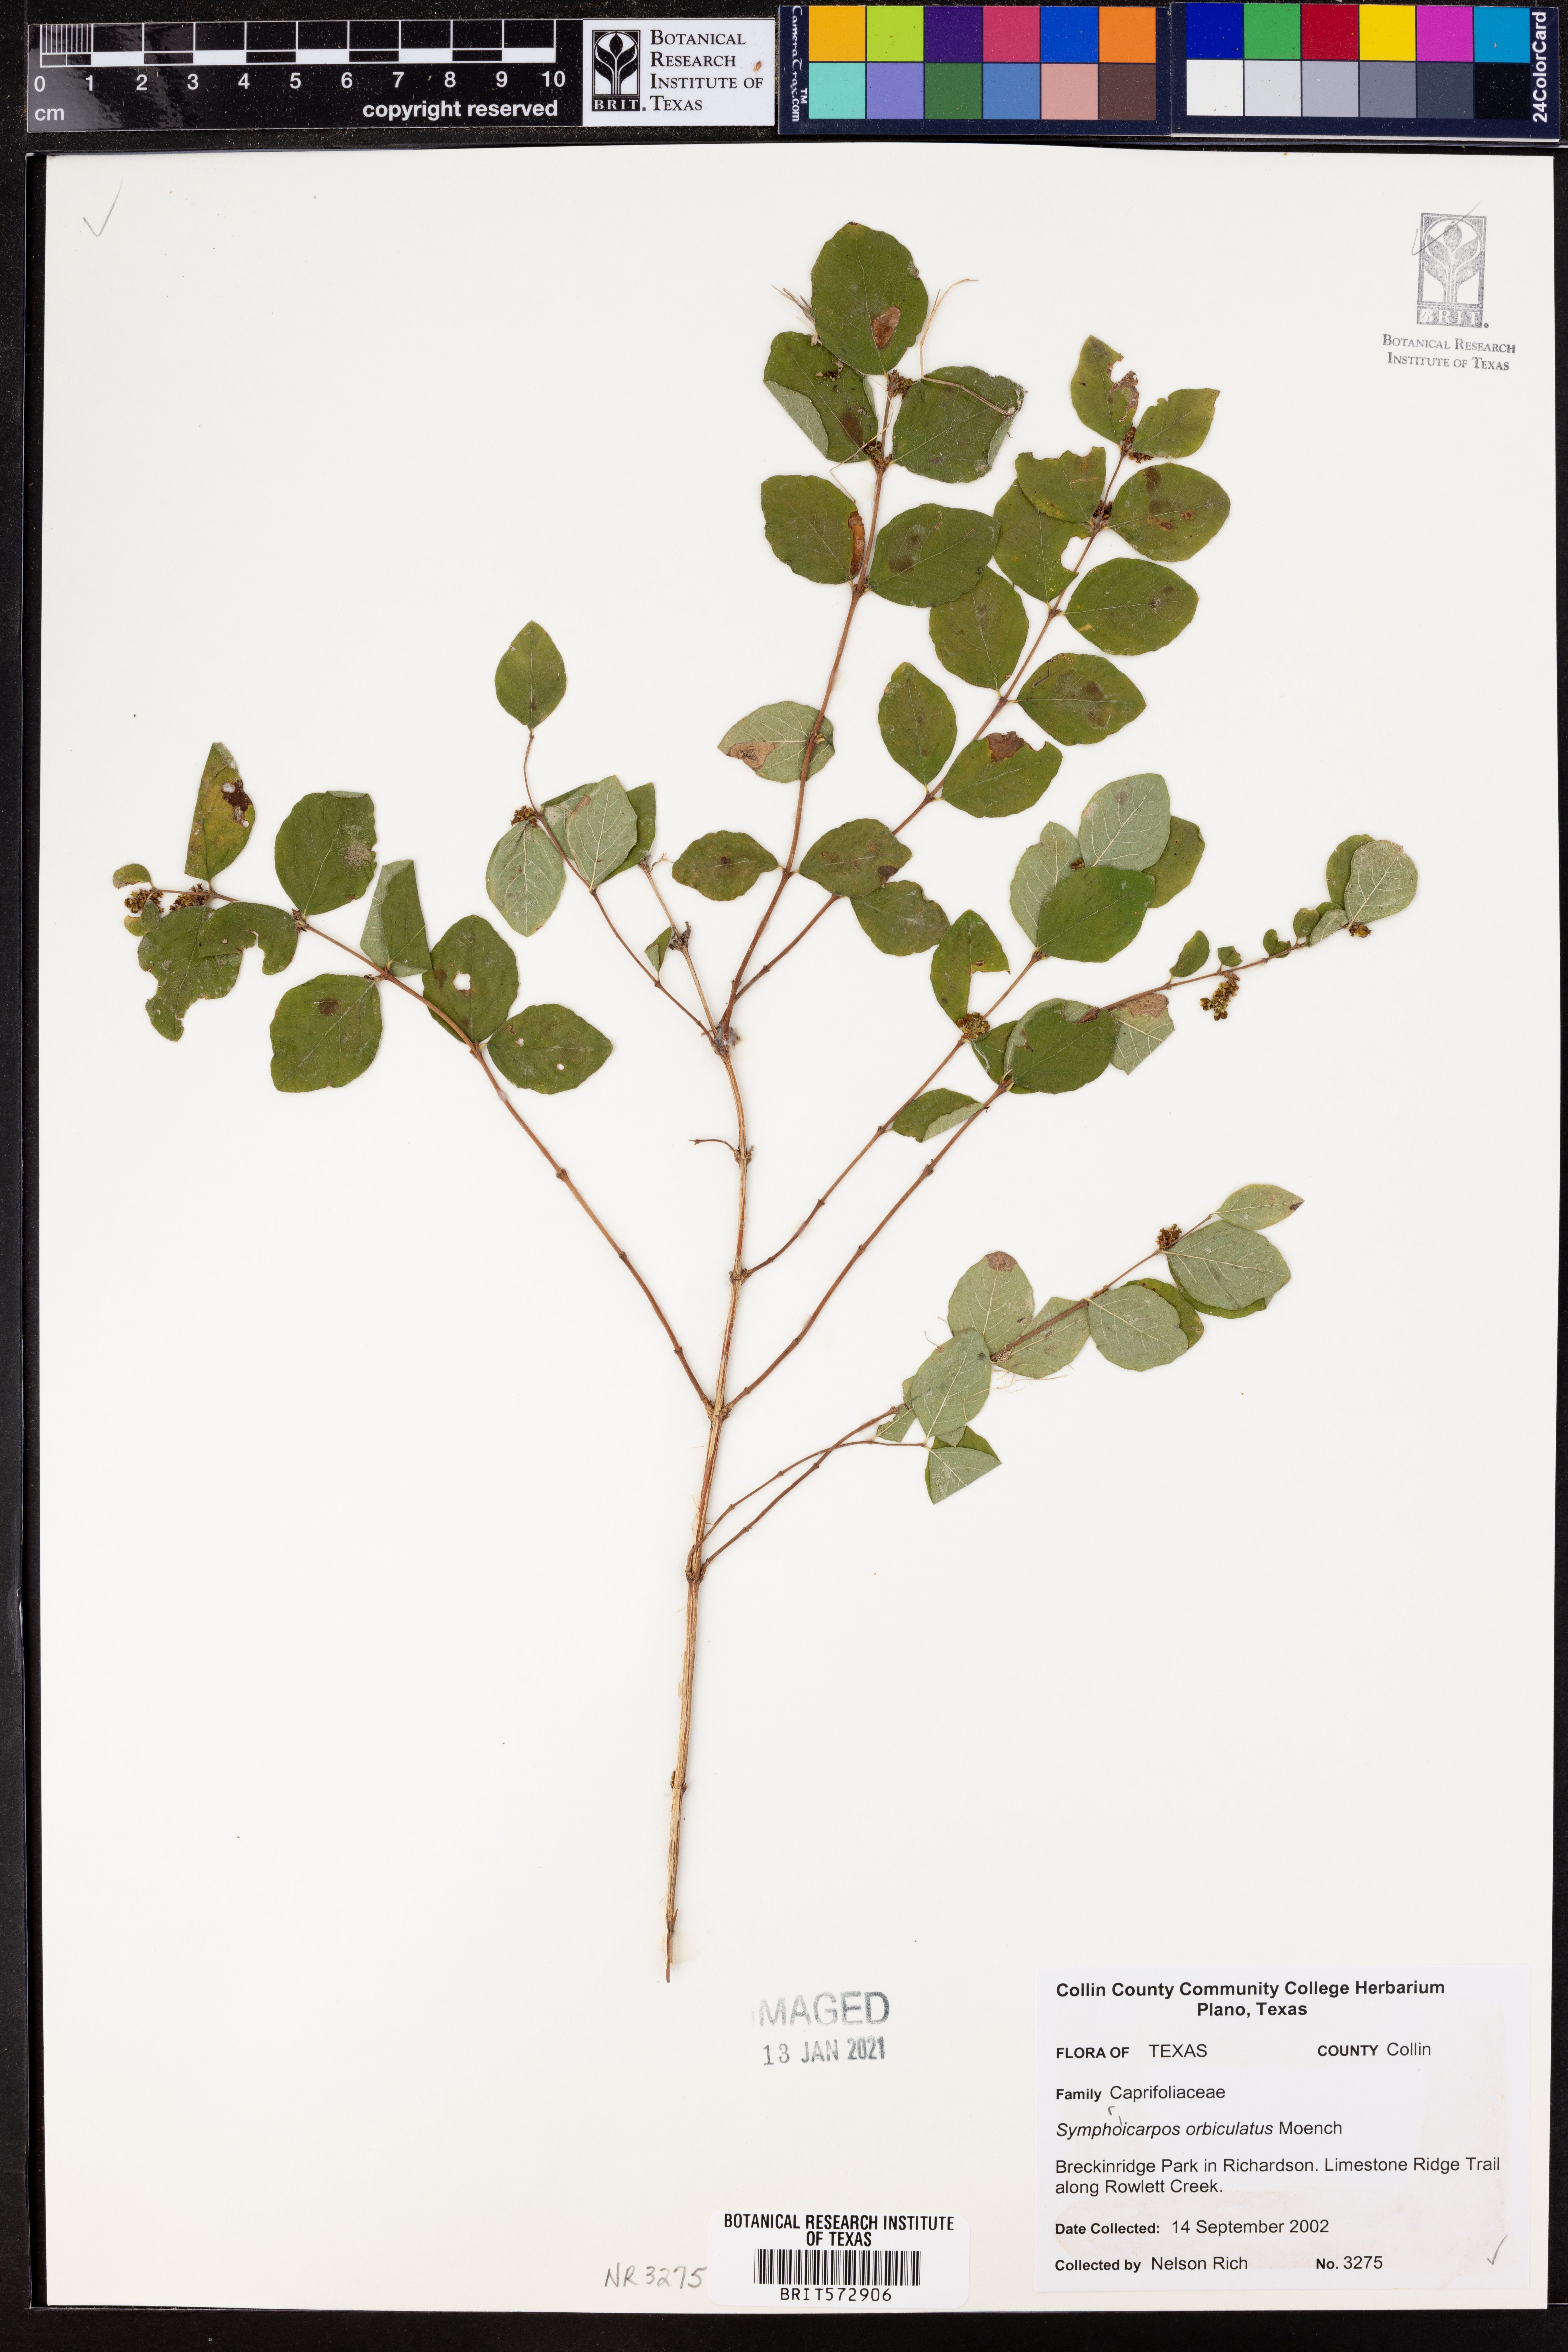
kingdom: Plantae
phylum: Tracheophyta
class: Magnoliopsida
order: Dipsacales
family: Caprifoliaceae
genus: Symphoricarpos
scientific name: Symphoricarpos orbiculatus
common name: Coralberry
